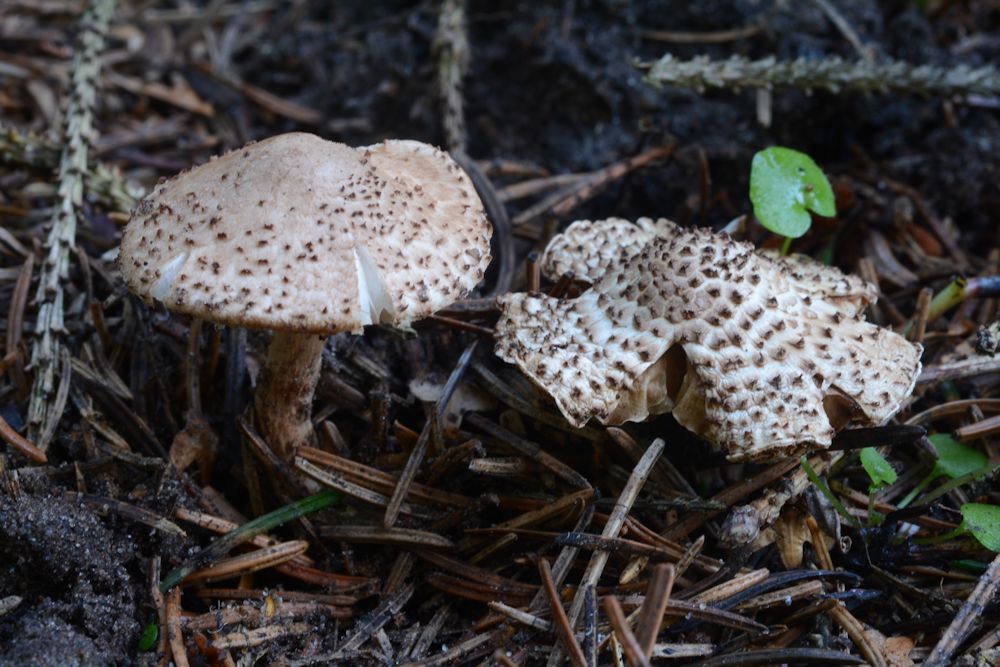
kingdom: Fungi
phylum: Basidiomycota
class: Agaricomycetes
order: Agaricales
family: Agaricaceae
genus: Echinoderma
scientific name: Echinoderma echinaceum
